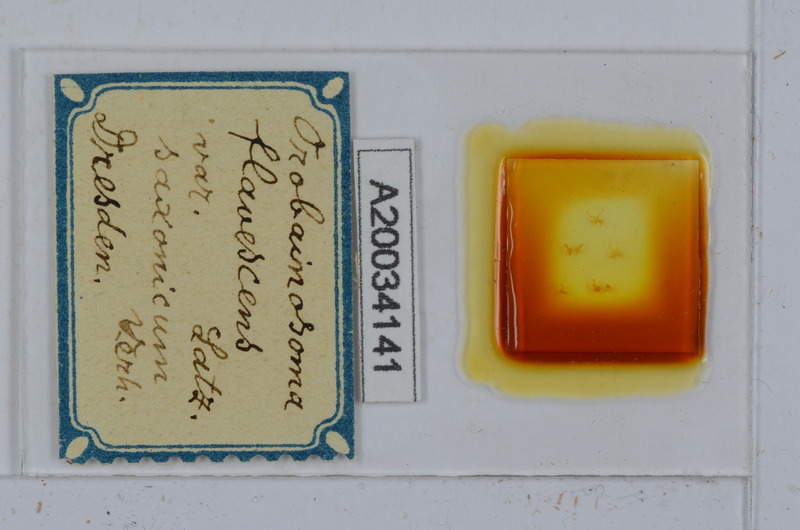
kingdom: Animalia
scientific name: Animalia
